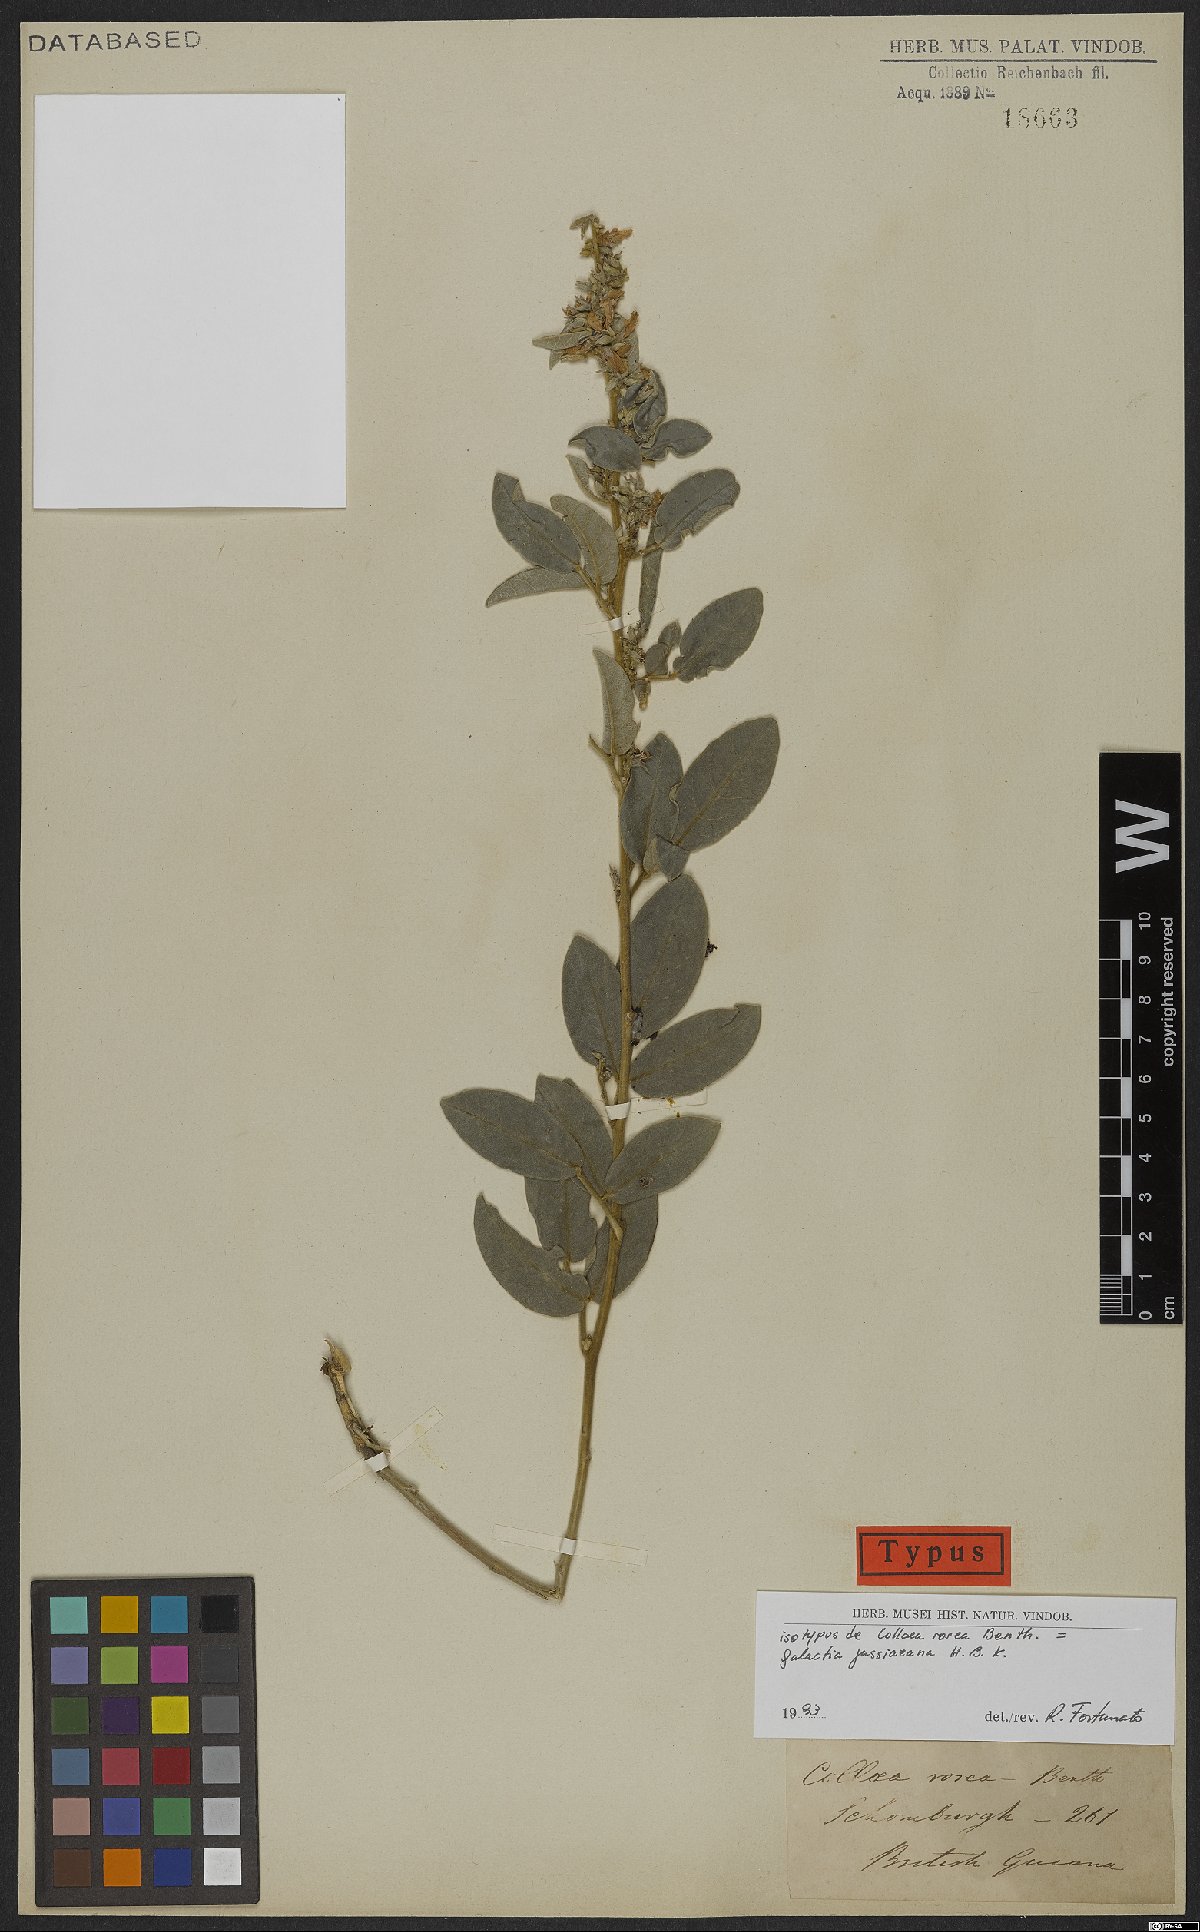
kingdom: Plantae
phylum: Tracheophyta
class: Magnoliopsida
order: Fabales
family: Fabaceae
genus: Galactia
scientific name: Galactia jussiaeana
